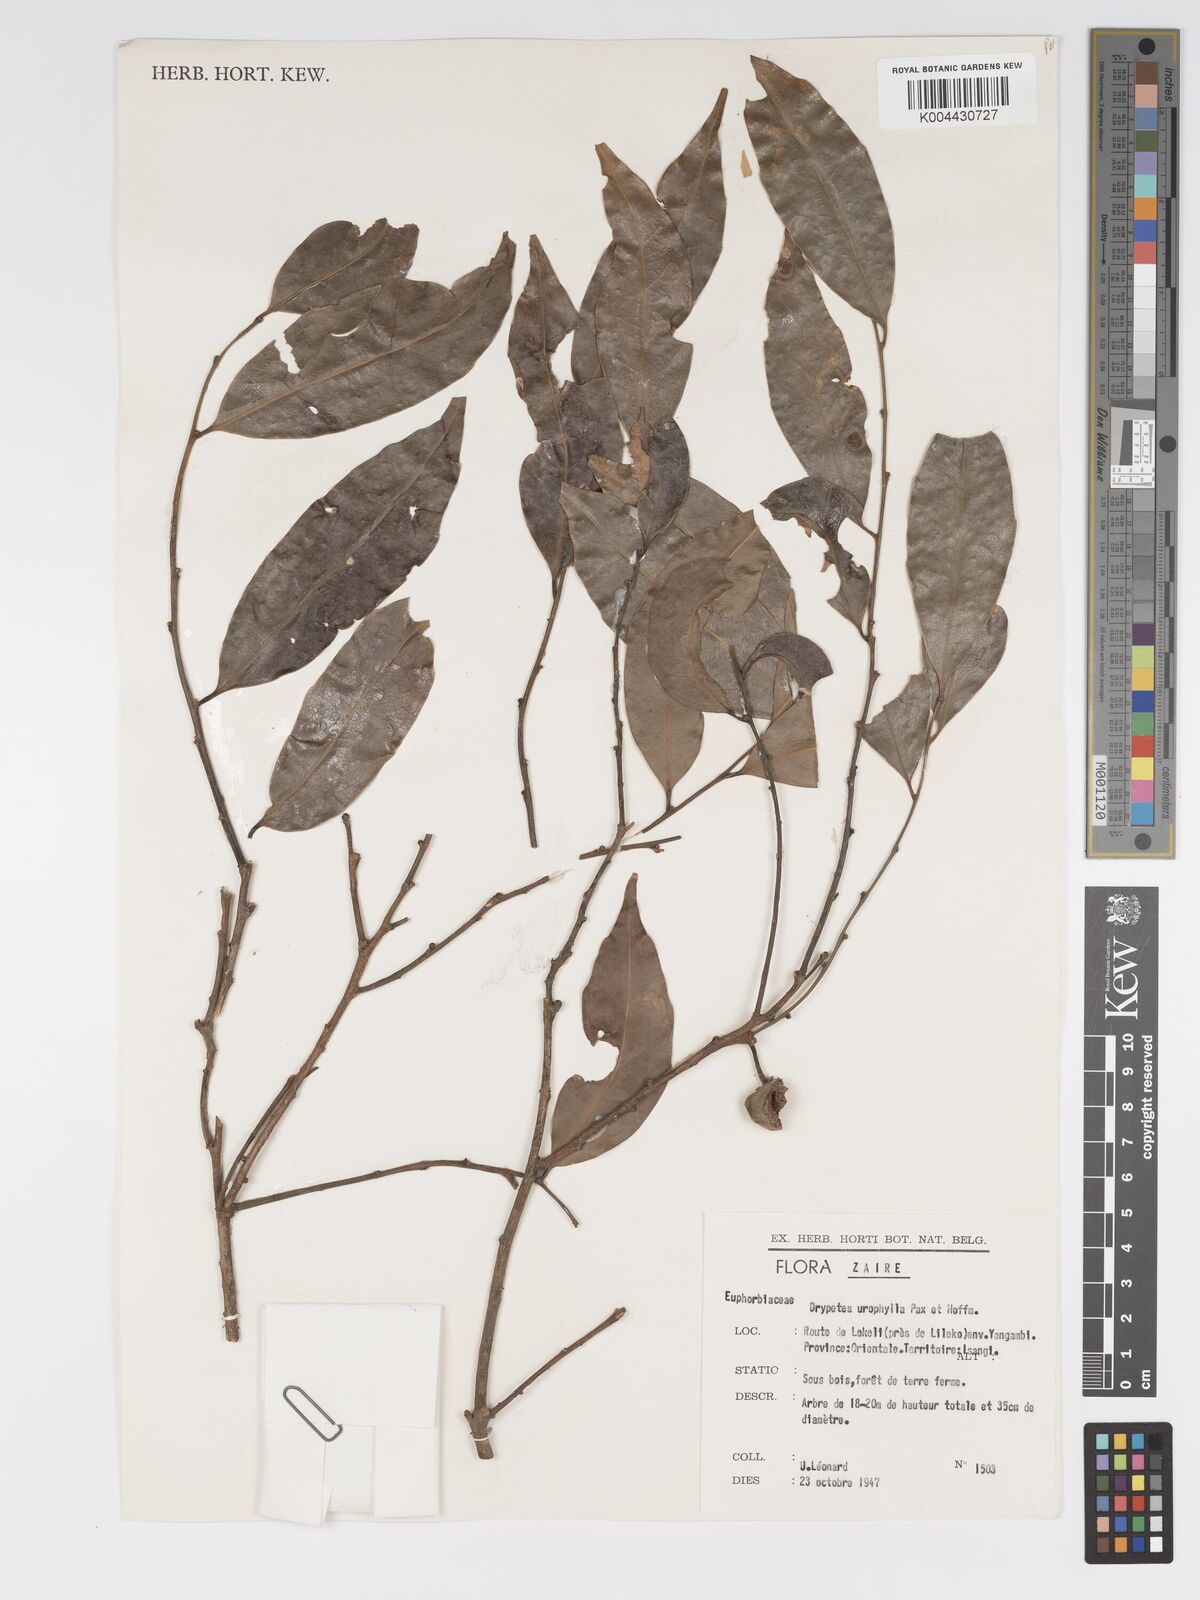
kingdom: Plantae
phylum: Tracheophyta
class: Magnoliopsida
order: Malpighiales
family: Putranjivaceae
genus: Drypetes
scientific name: Drypetes leonensis
